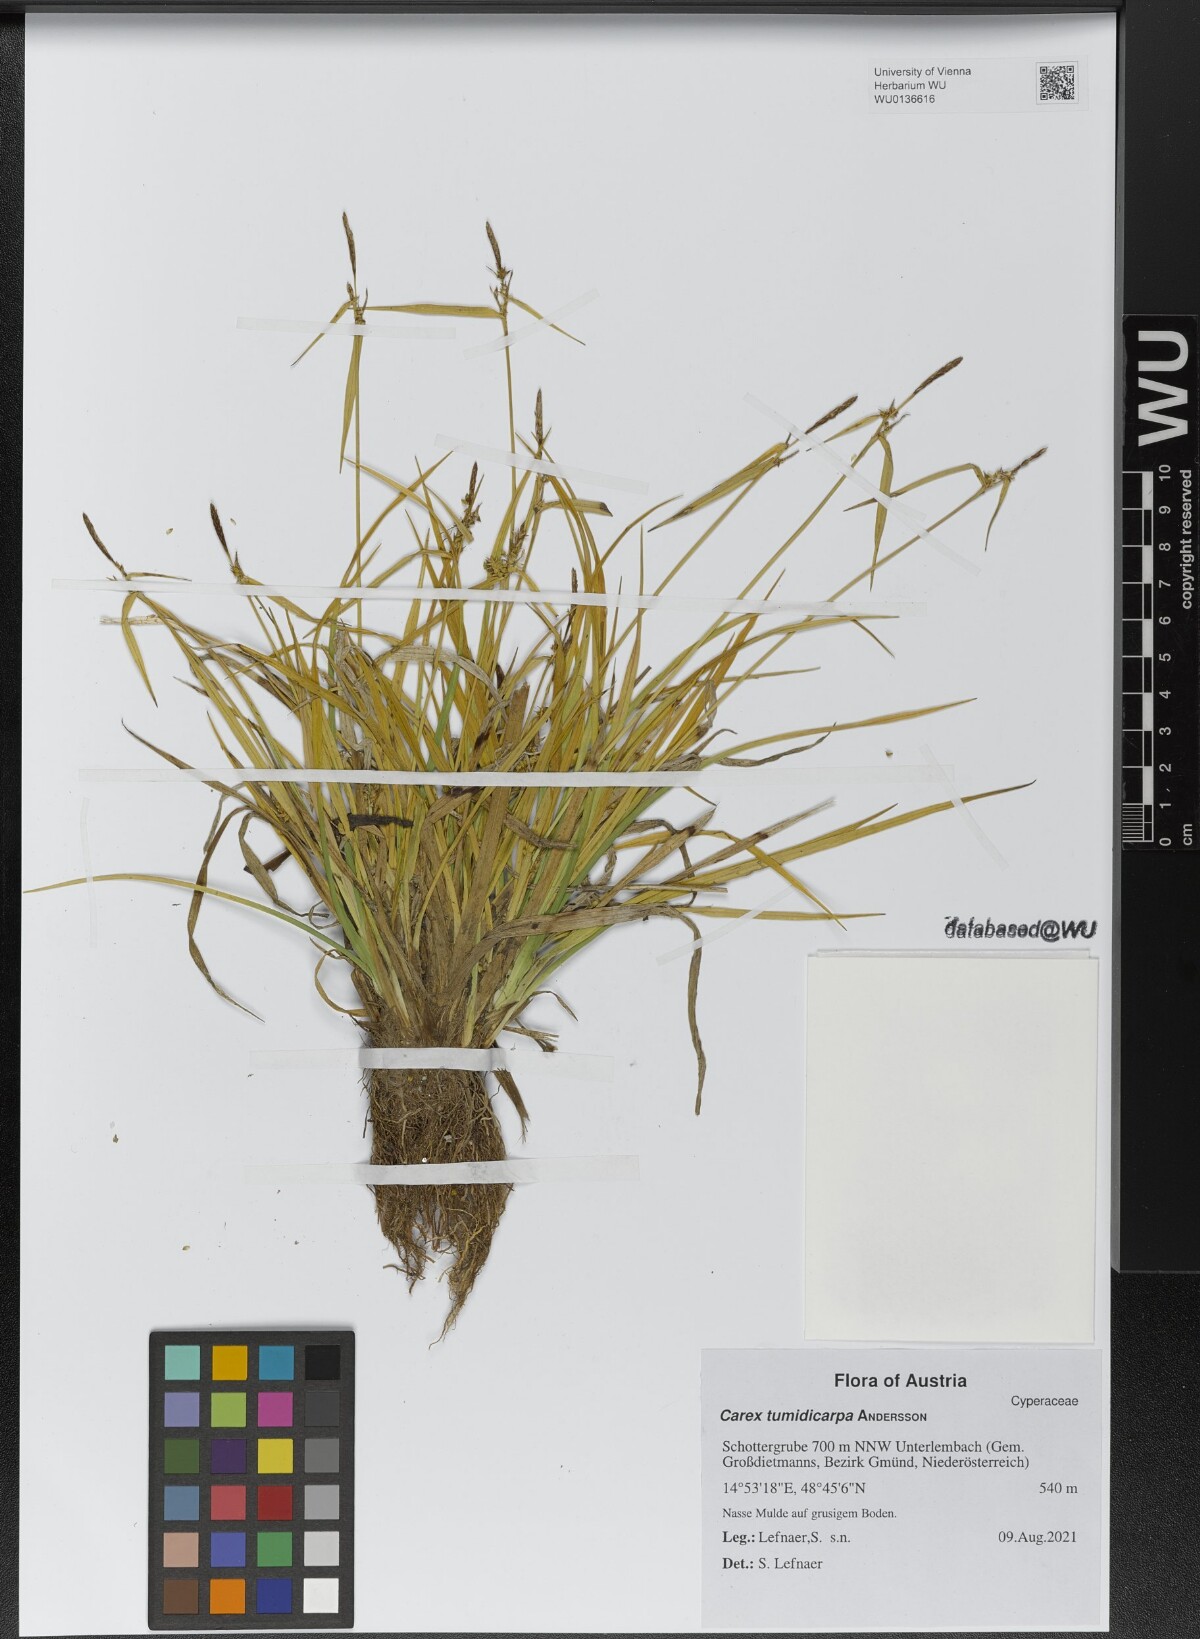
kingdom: Plantae
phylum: Tracheophyta
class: Liliopsida
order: Poales
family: Cyperaceae
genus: Carex
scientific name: Carex demissa
